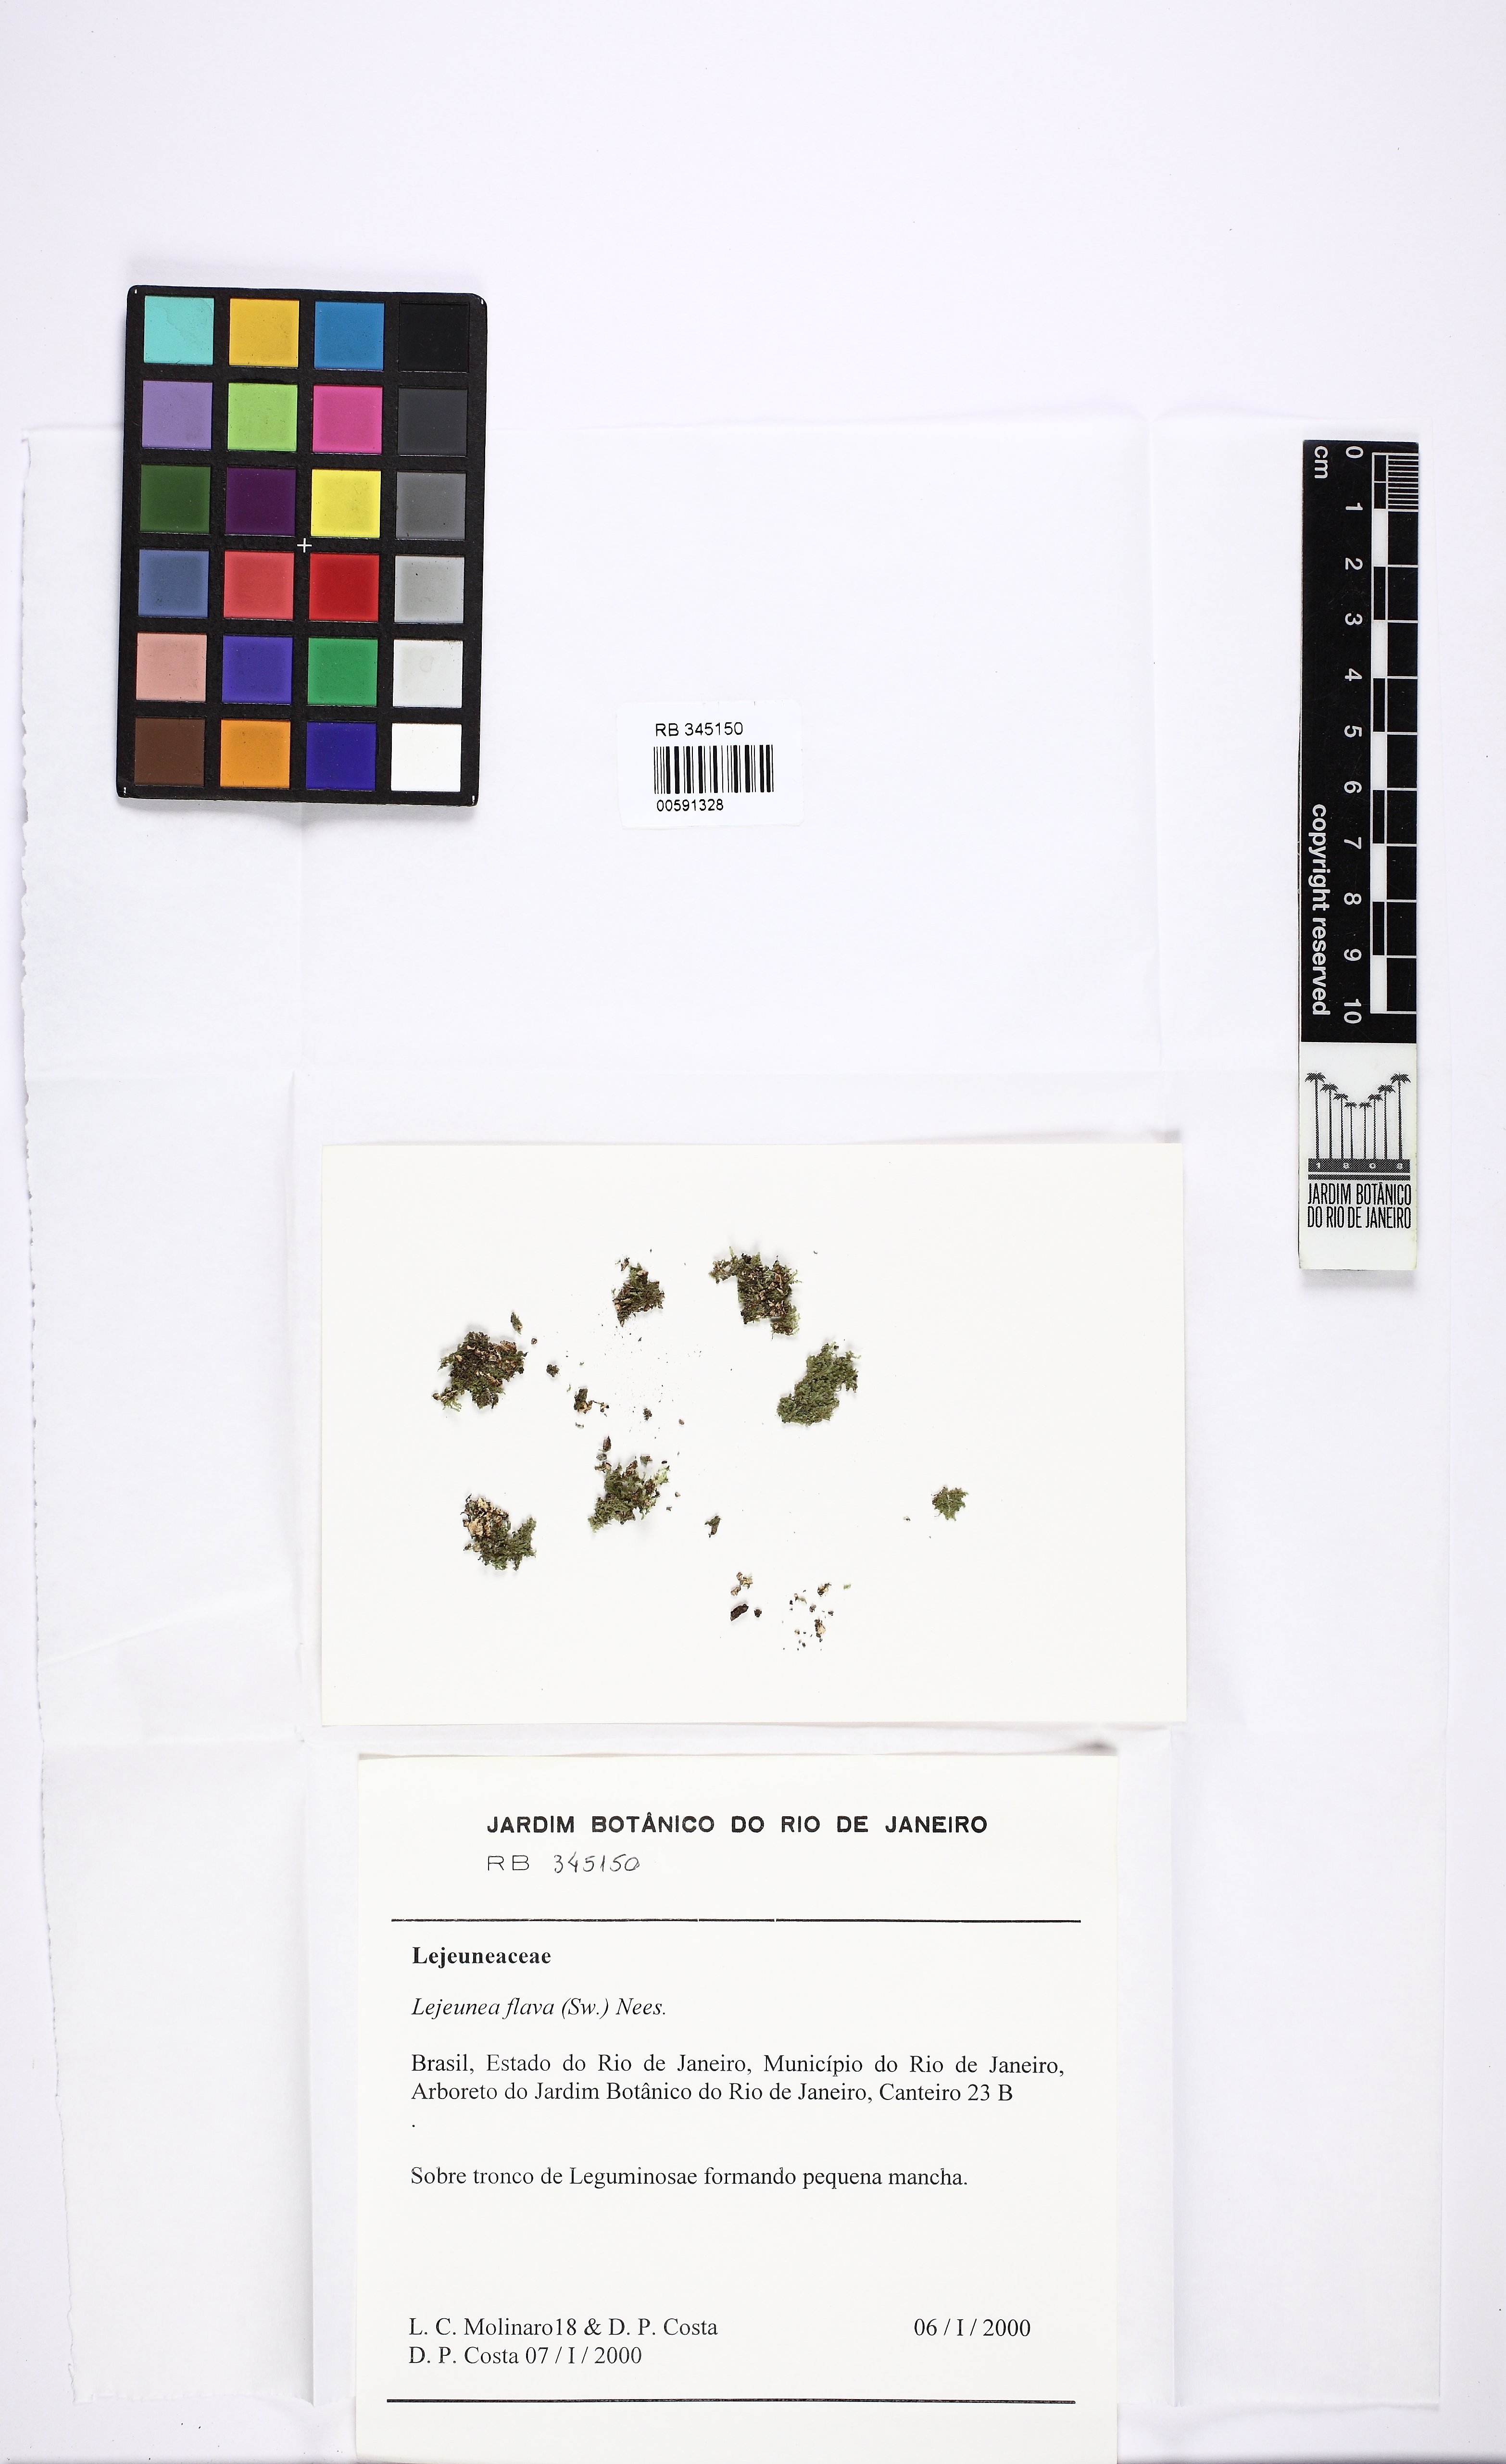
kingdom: Plantae
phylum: Marchantiophyta
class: Jungermanniopsida
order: Porellales
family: Lejeuneaceae
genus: Lejeunea
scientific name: Lejeunea flava
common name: Yellow pouncewort
